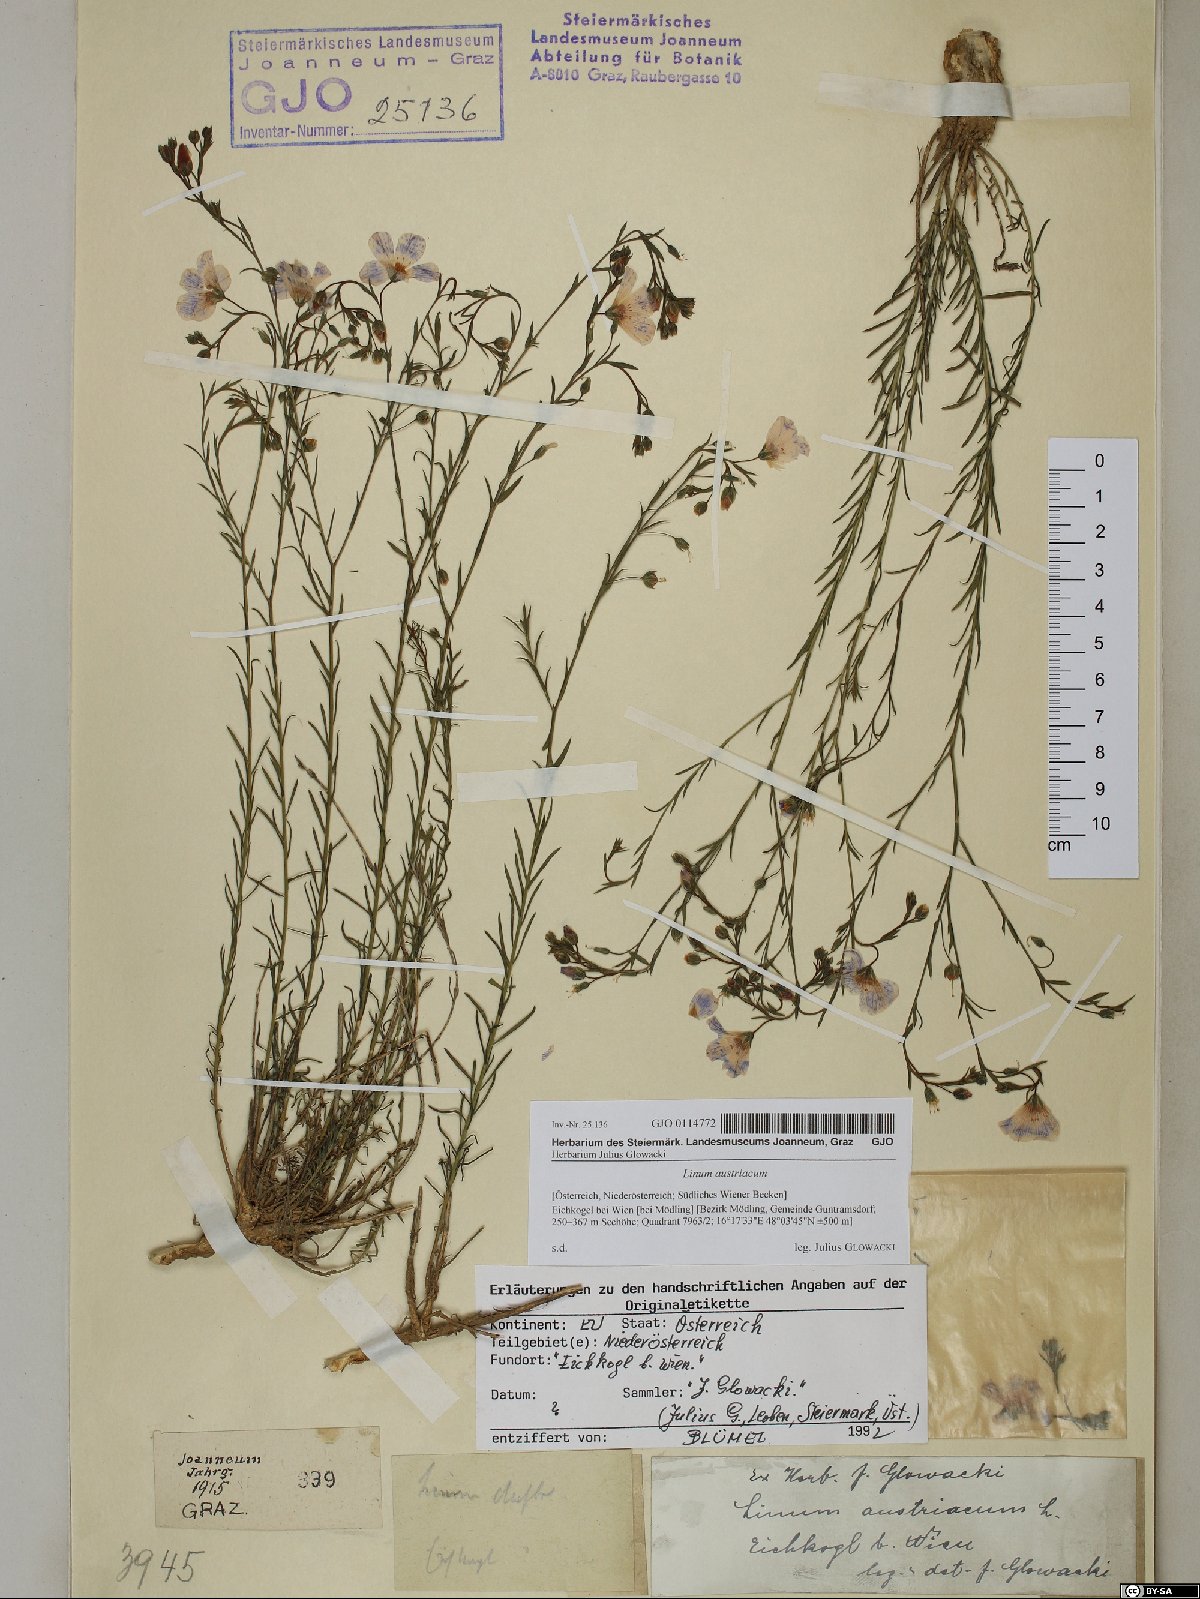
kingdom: Plantae
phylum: Tracheophyta
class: Magnoliopsida
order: Malpighiales
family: Linaceae
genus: Linum
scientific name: Linum austriacum
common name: Austrian flax
